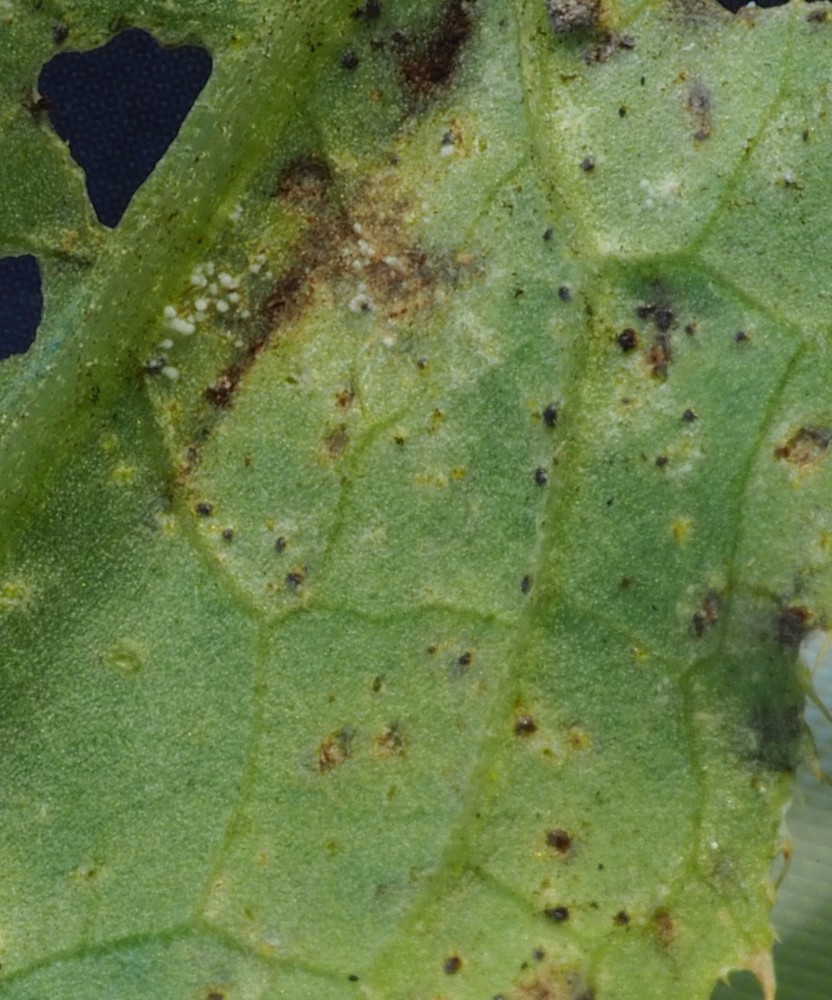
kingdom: Fungi
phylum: Basidiomycota
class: Pucciniomycetes
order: Pucciniales
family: Pucciniaceae
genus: Puccinia
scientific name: Puccinia suaveolens
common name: tidsel-tvecellerust
